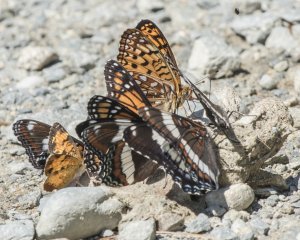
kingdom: Animalia
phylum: Arthropoda
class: Insecta
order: Lepidoptera
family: Nymphalidae
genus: Limenitis
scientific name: Limenitis arthemis
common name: Red-spotted Admiral
